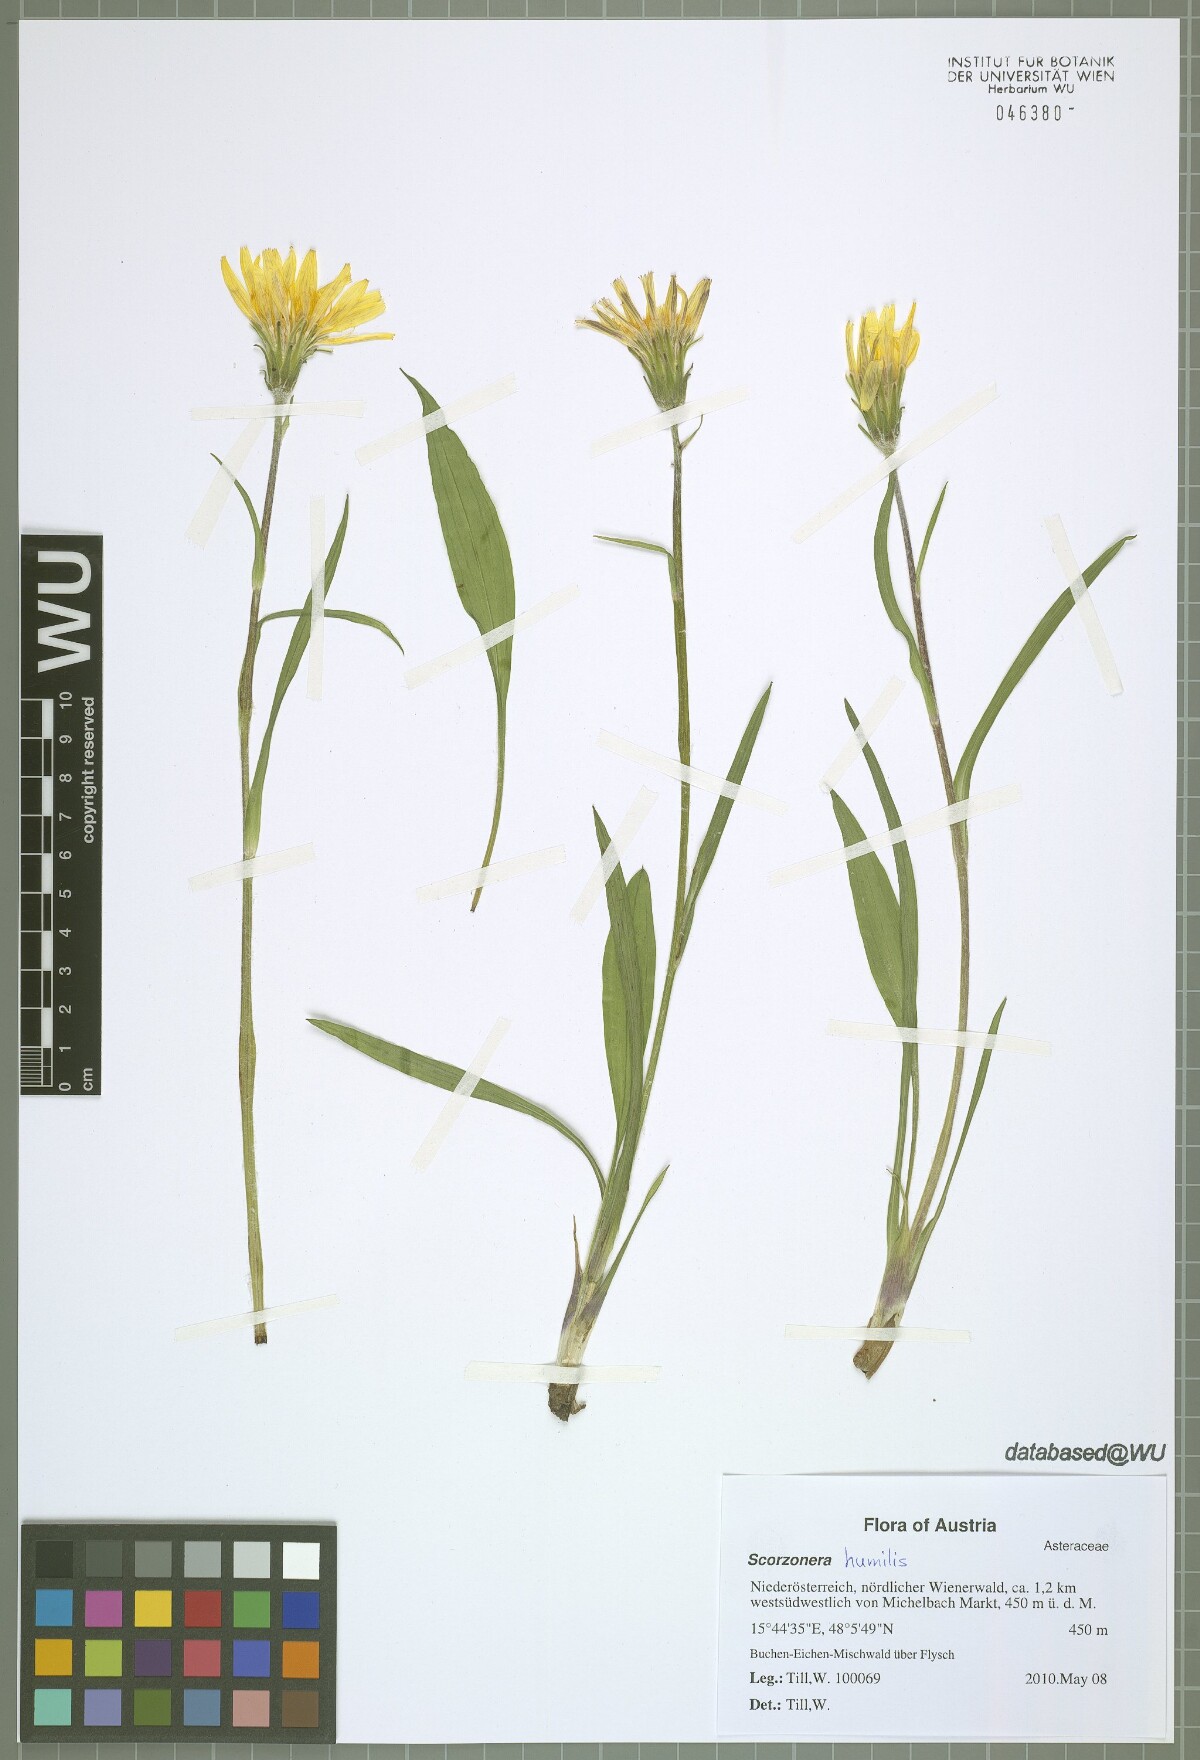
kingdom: Plantae
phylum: Tracheophyta
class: Magnoliopsida
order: Asterales
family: Asteraceae
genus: Scorzonera
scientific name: Scorzonera humilis
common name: Viper's-grass
